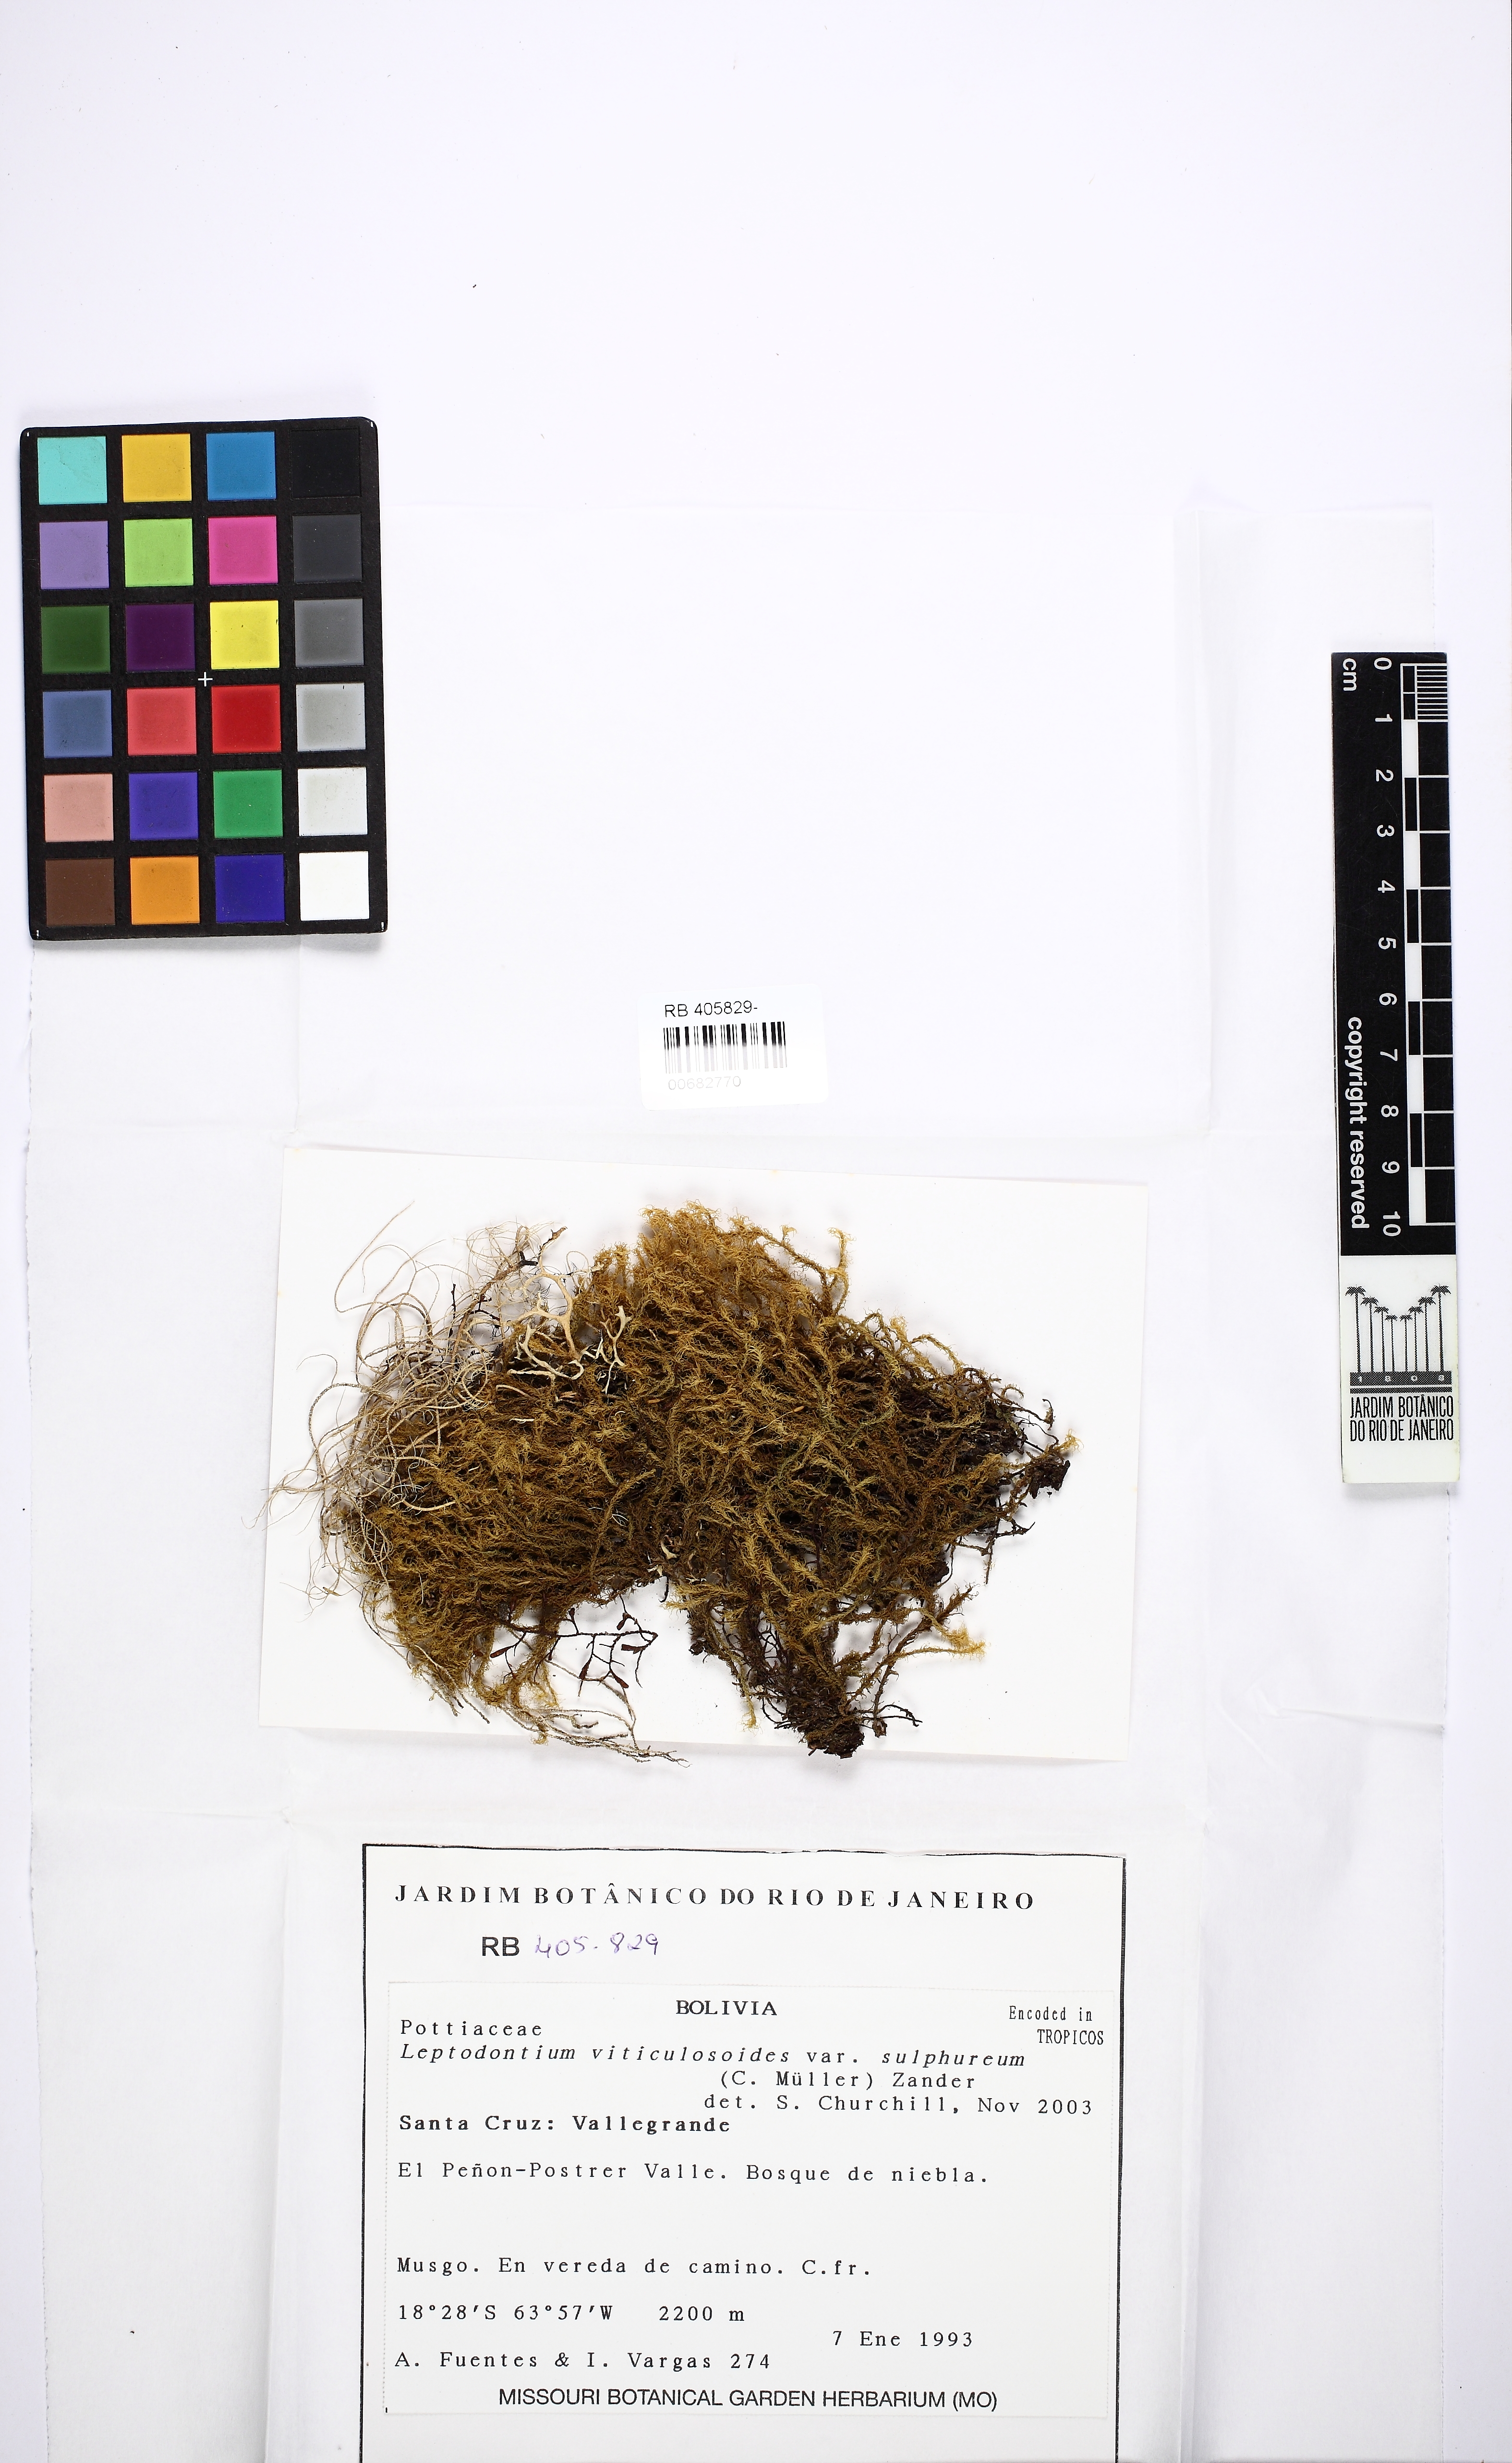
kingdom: Plantae
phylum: Bryophyta
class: Bryopsida
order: Pottiales
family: Pottiaceae
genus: Leptodontium
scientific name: Leptodontium excelsum
